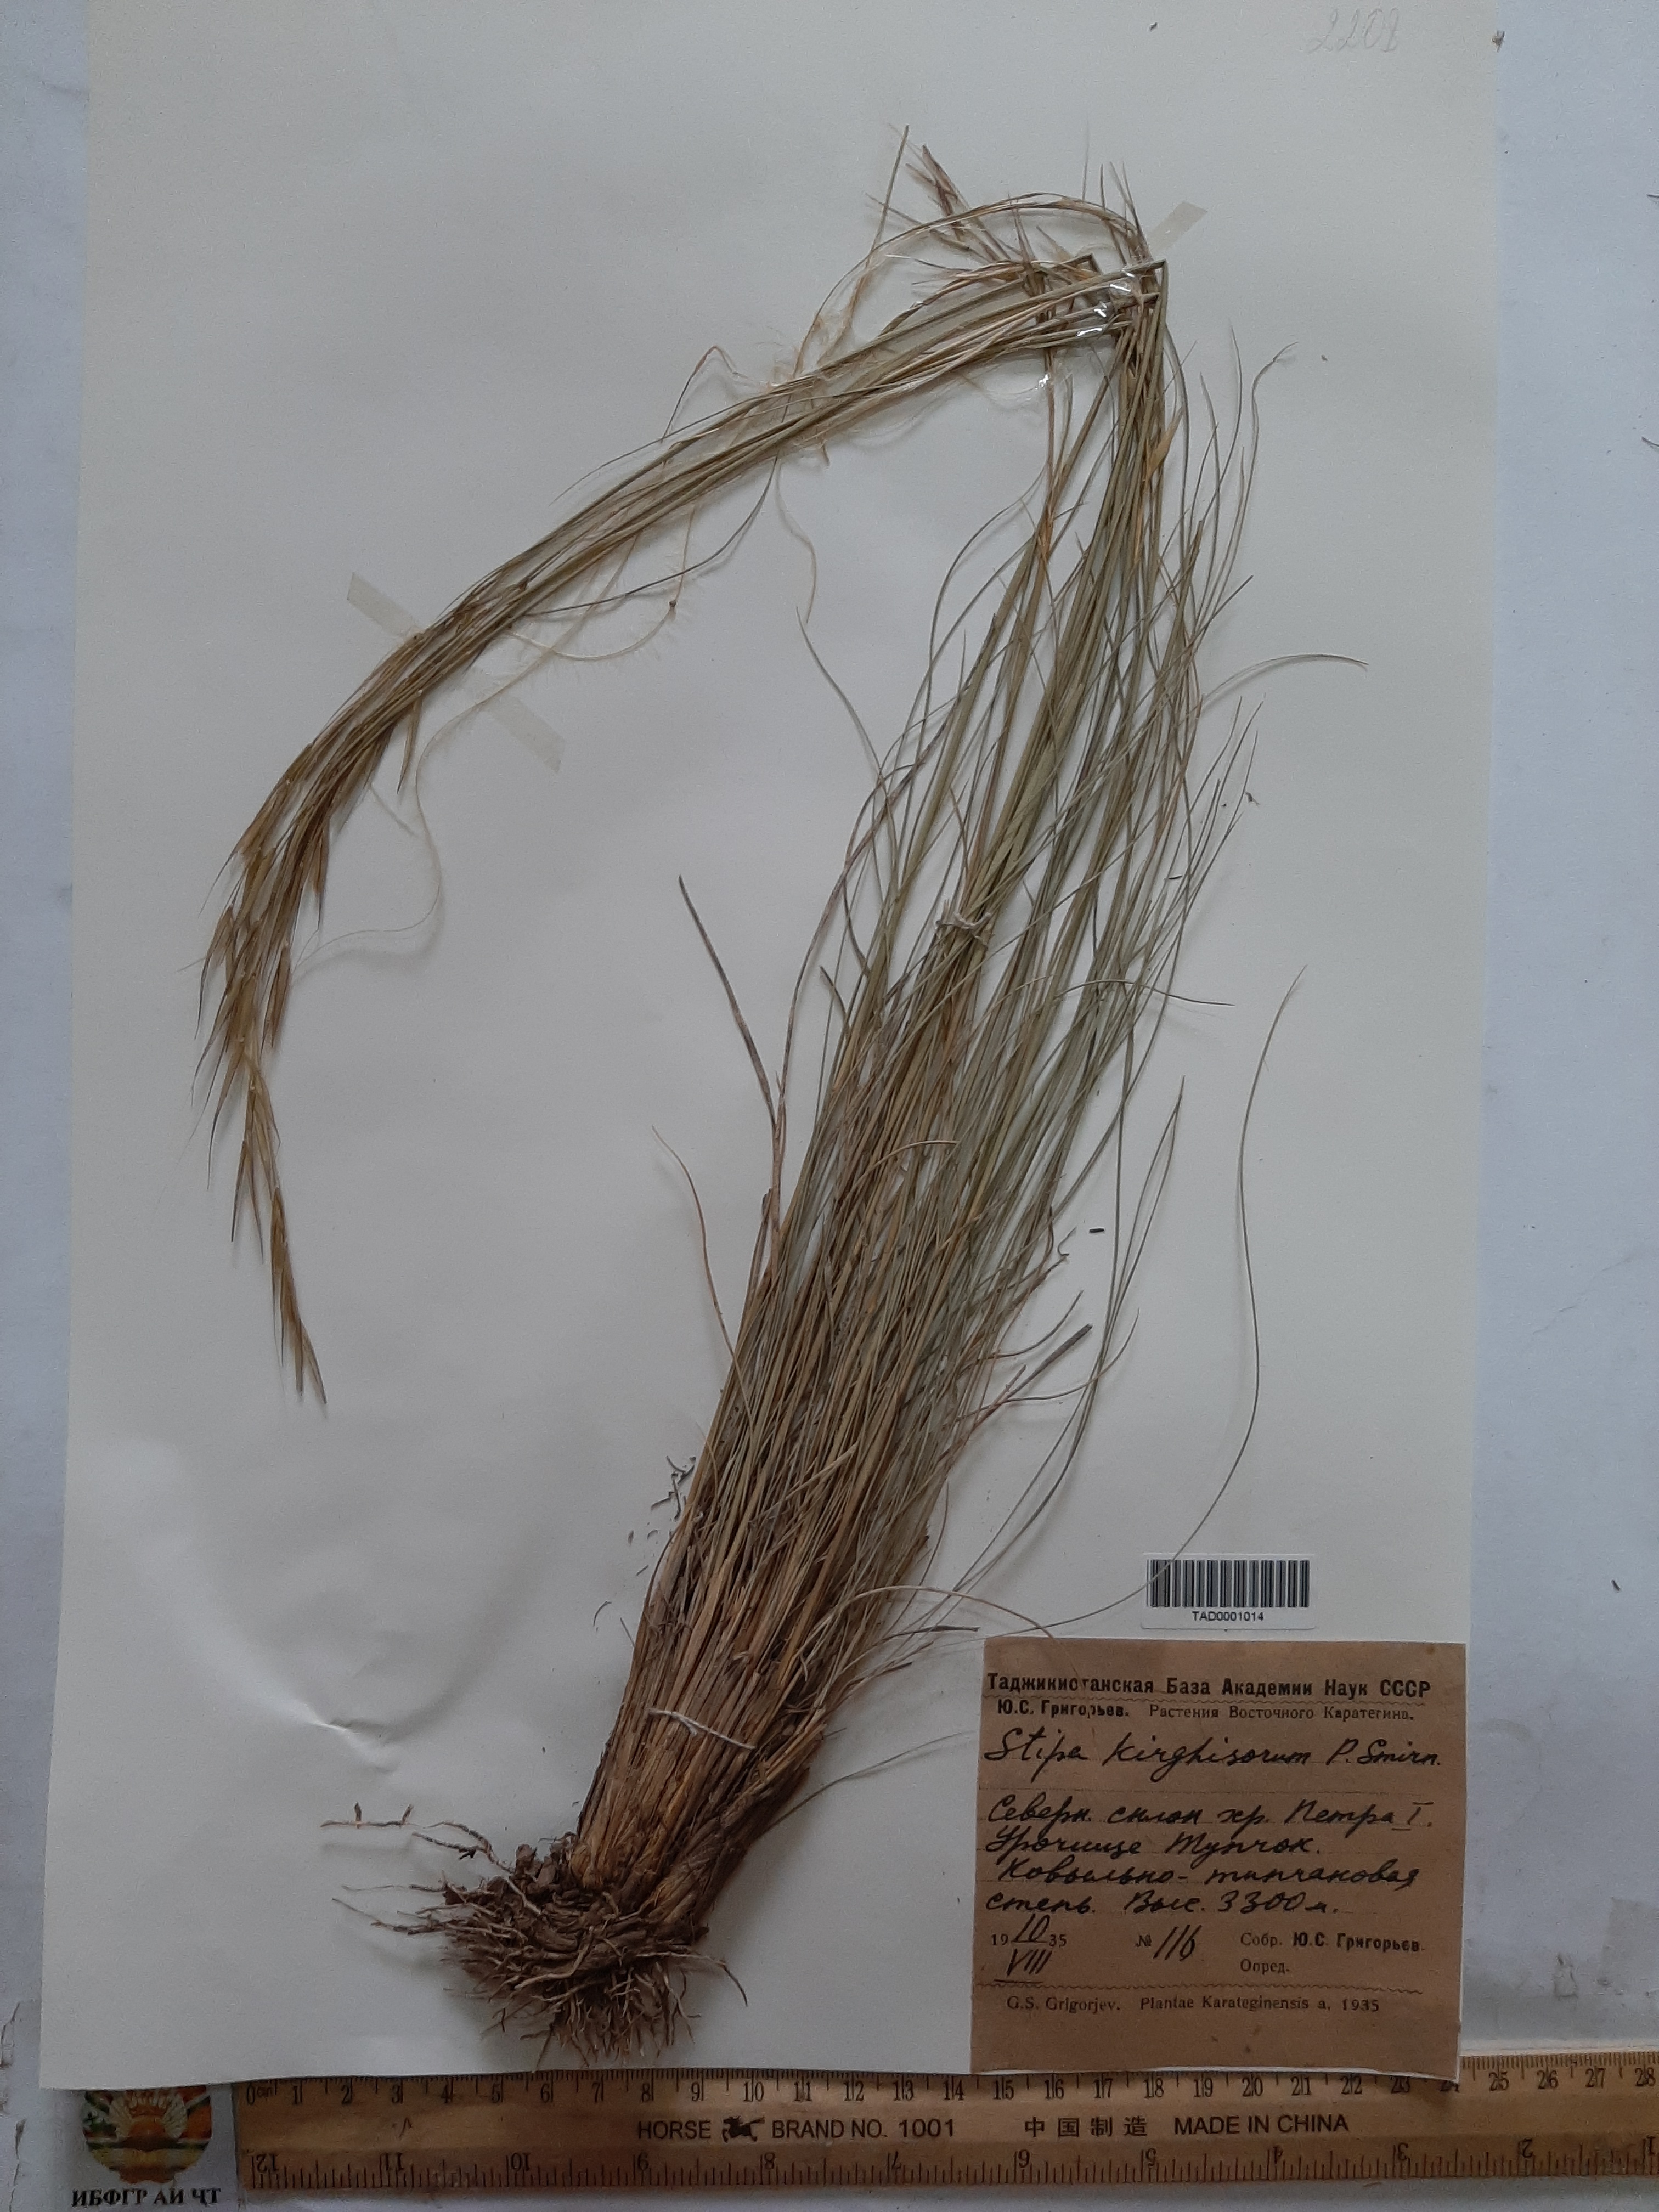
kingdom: Plantae
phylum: Tracheophyta
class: Liliopsida
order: Poales
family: Poaceae
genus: Stipa
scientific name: Stipa kirghisorum
